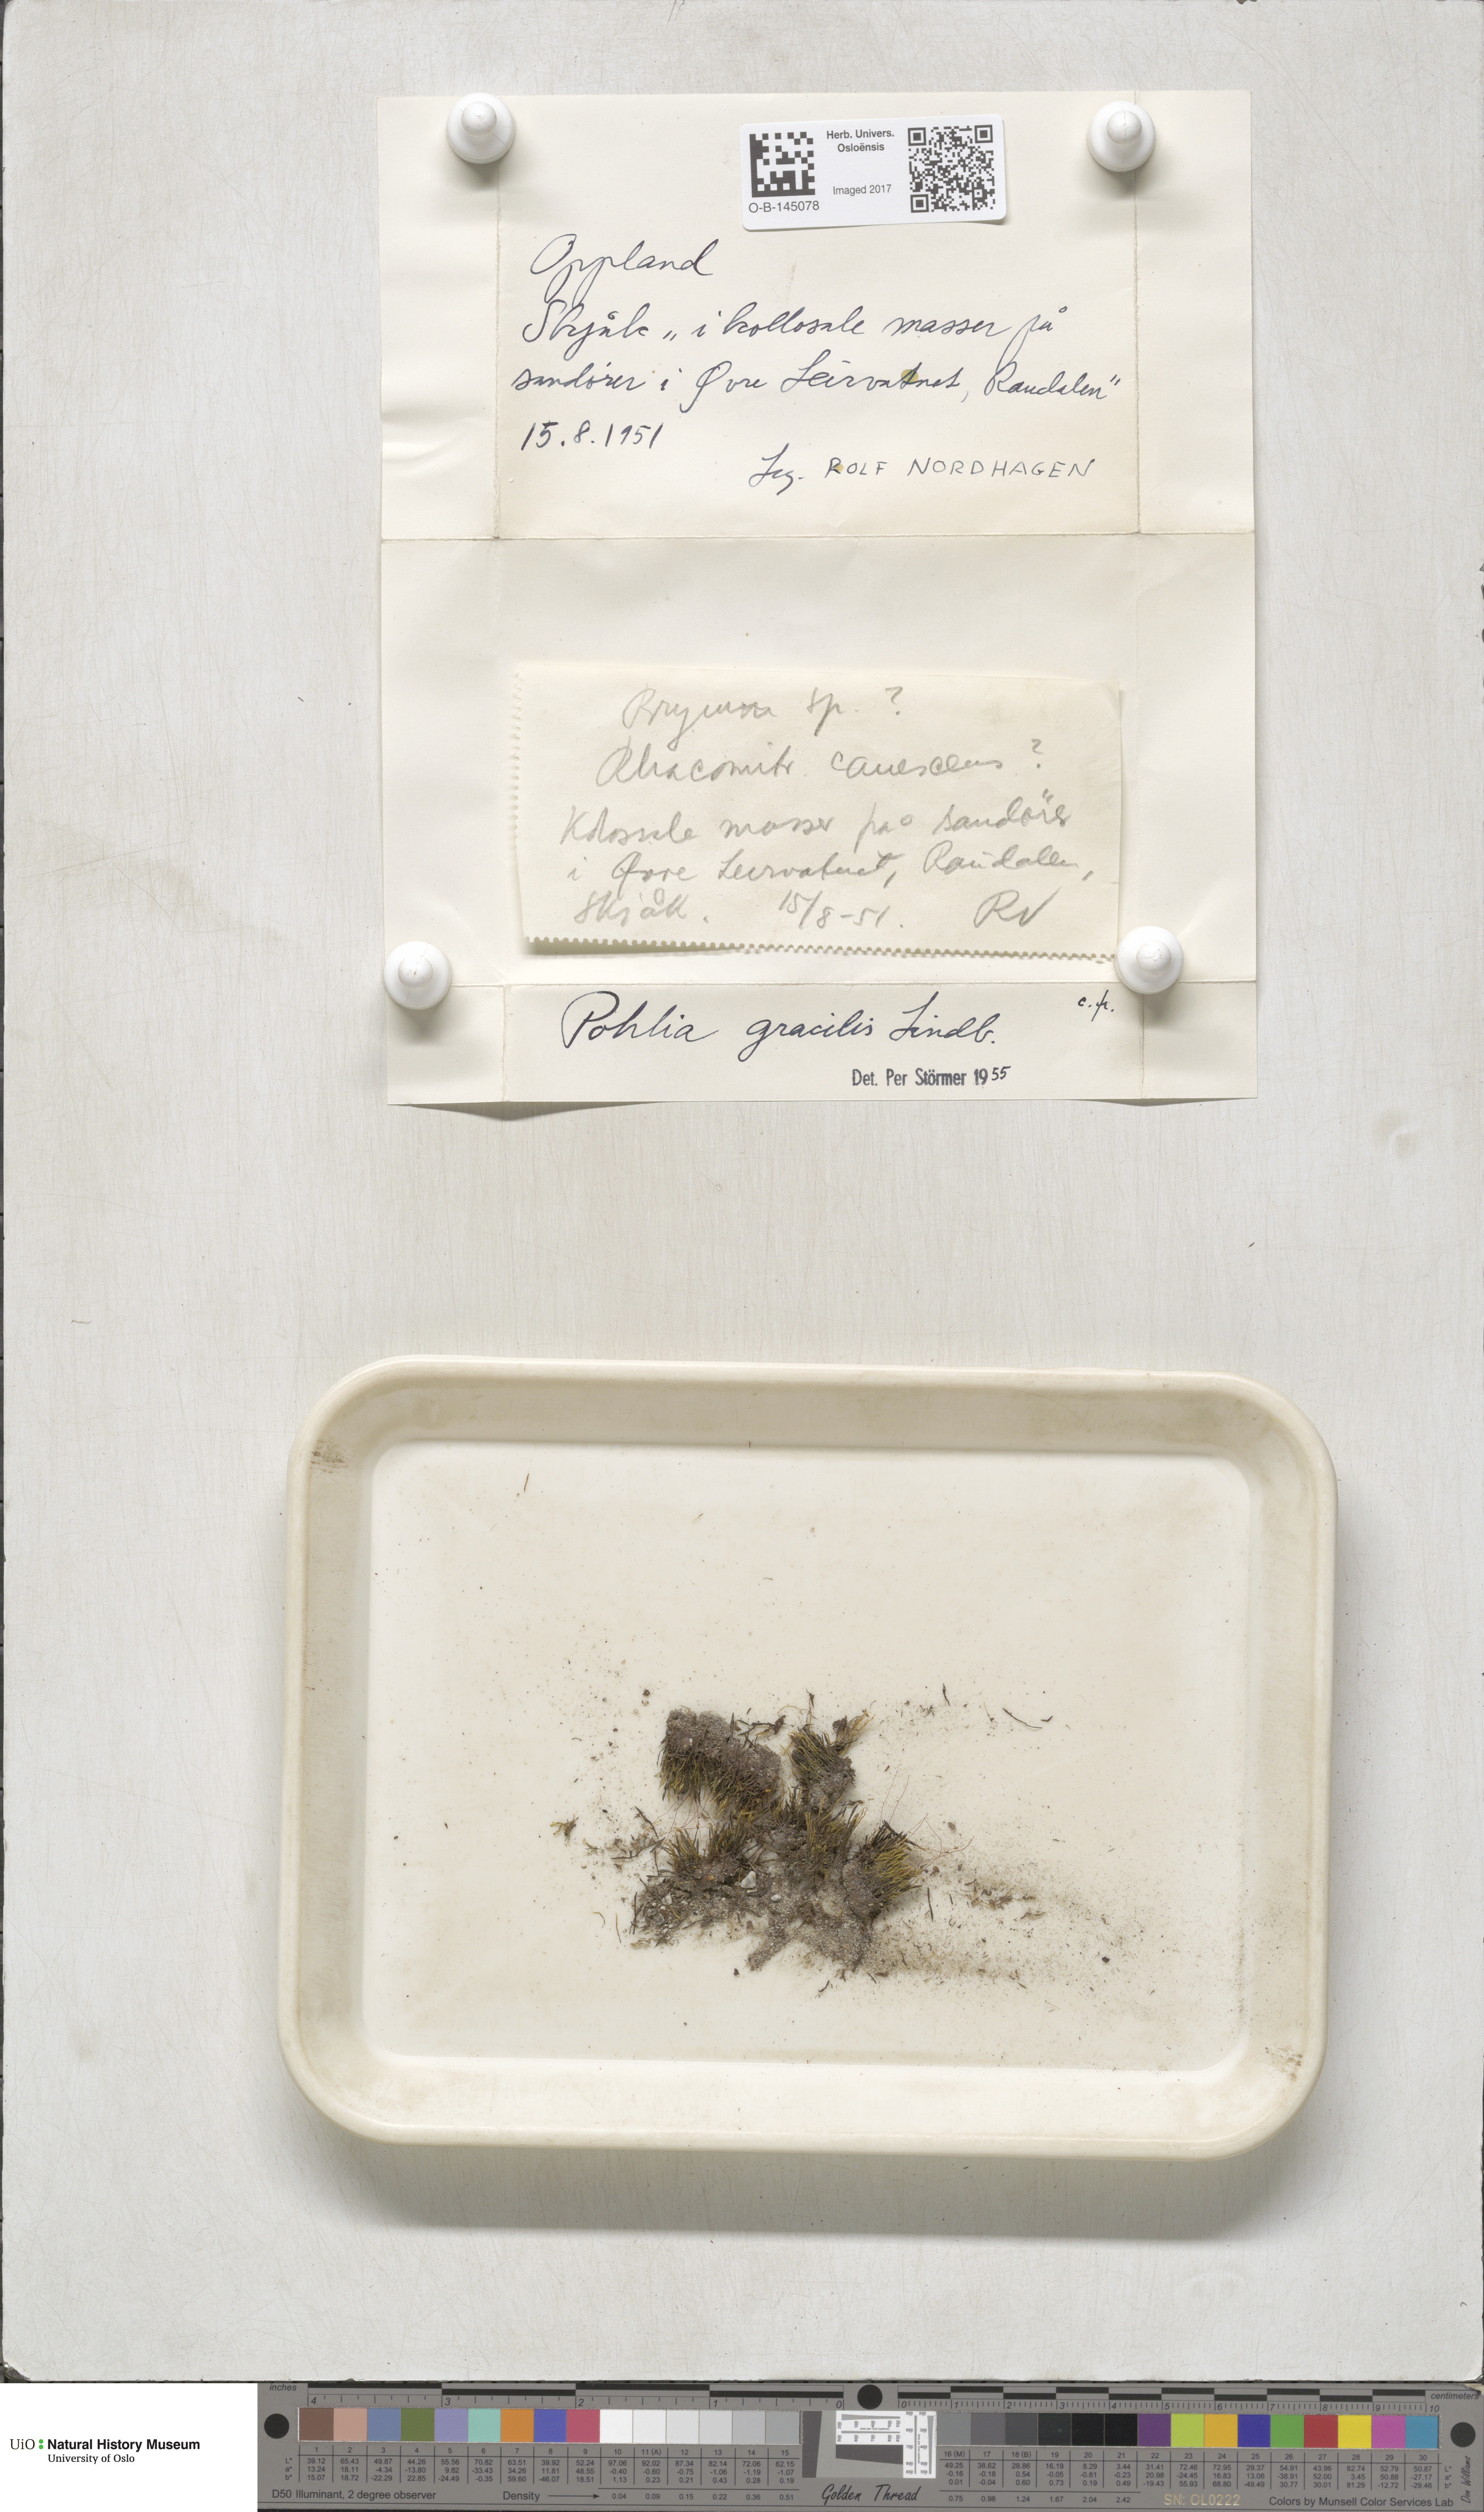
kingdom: Plantae
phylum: Bryophyta
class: Bryopsida
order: Bryales
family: Mniaceae
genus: Pohlia
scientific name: Pohlia filum
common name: Slender nodding moss
